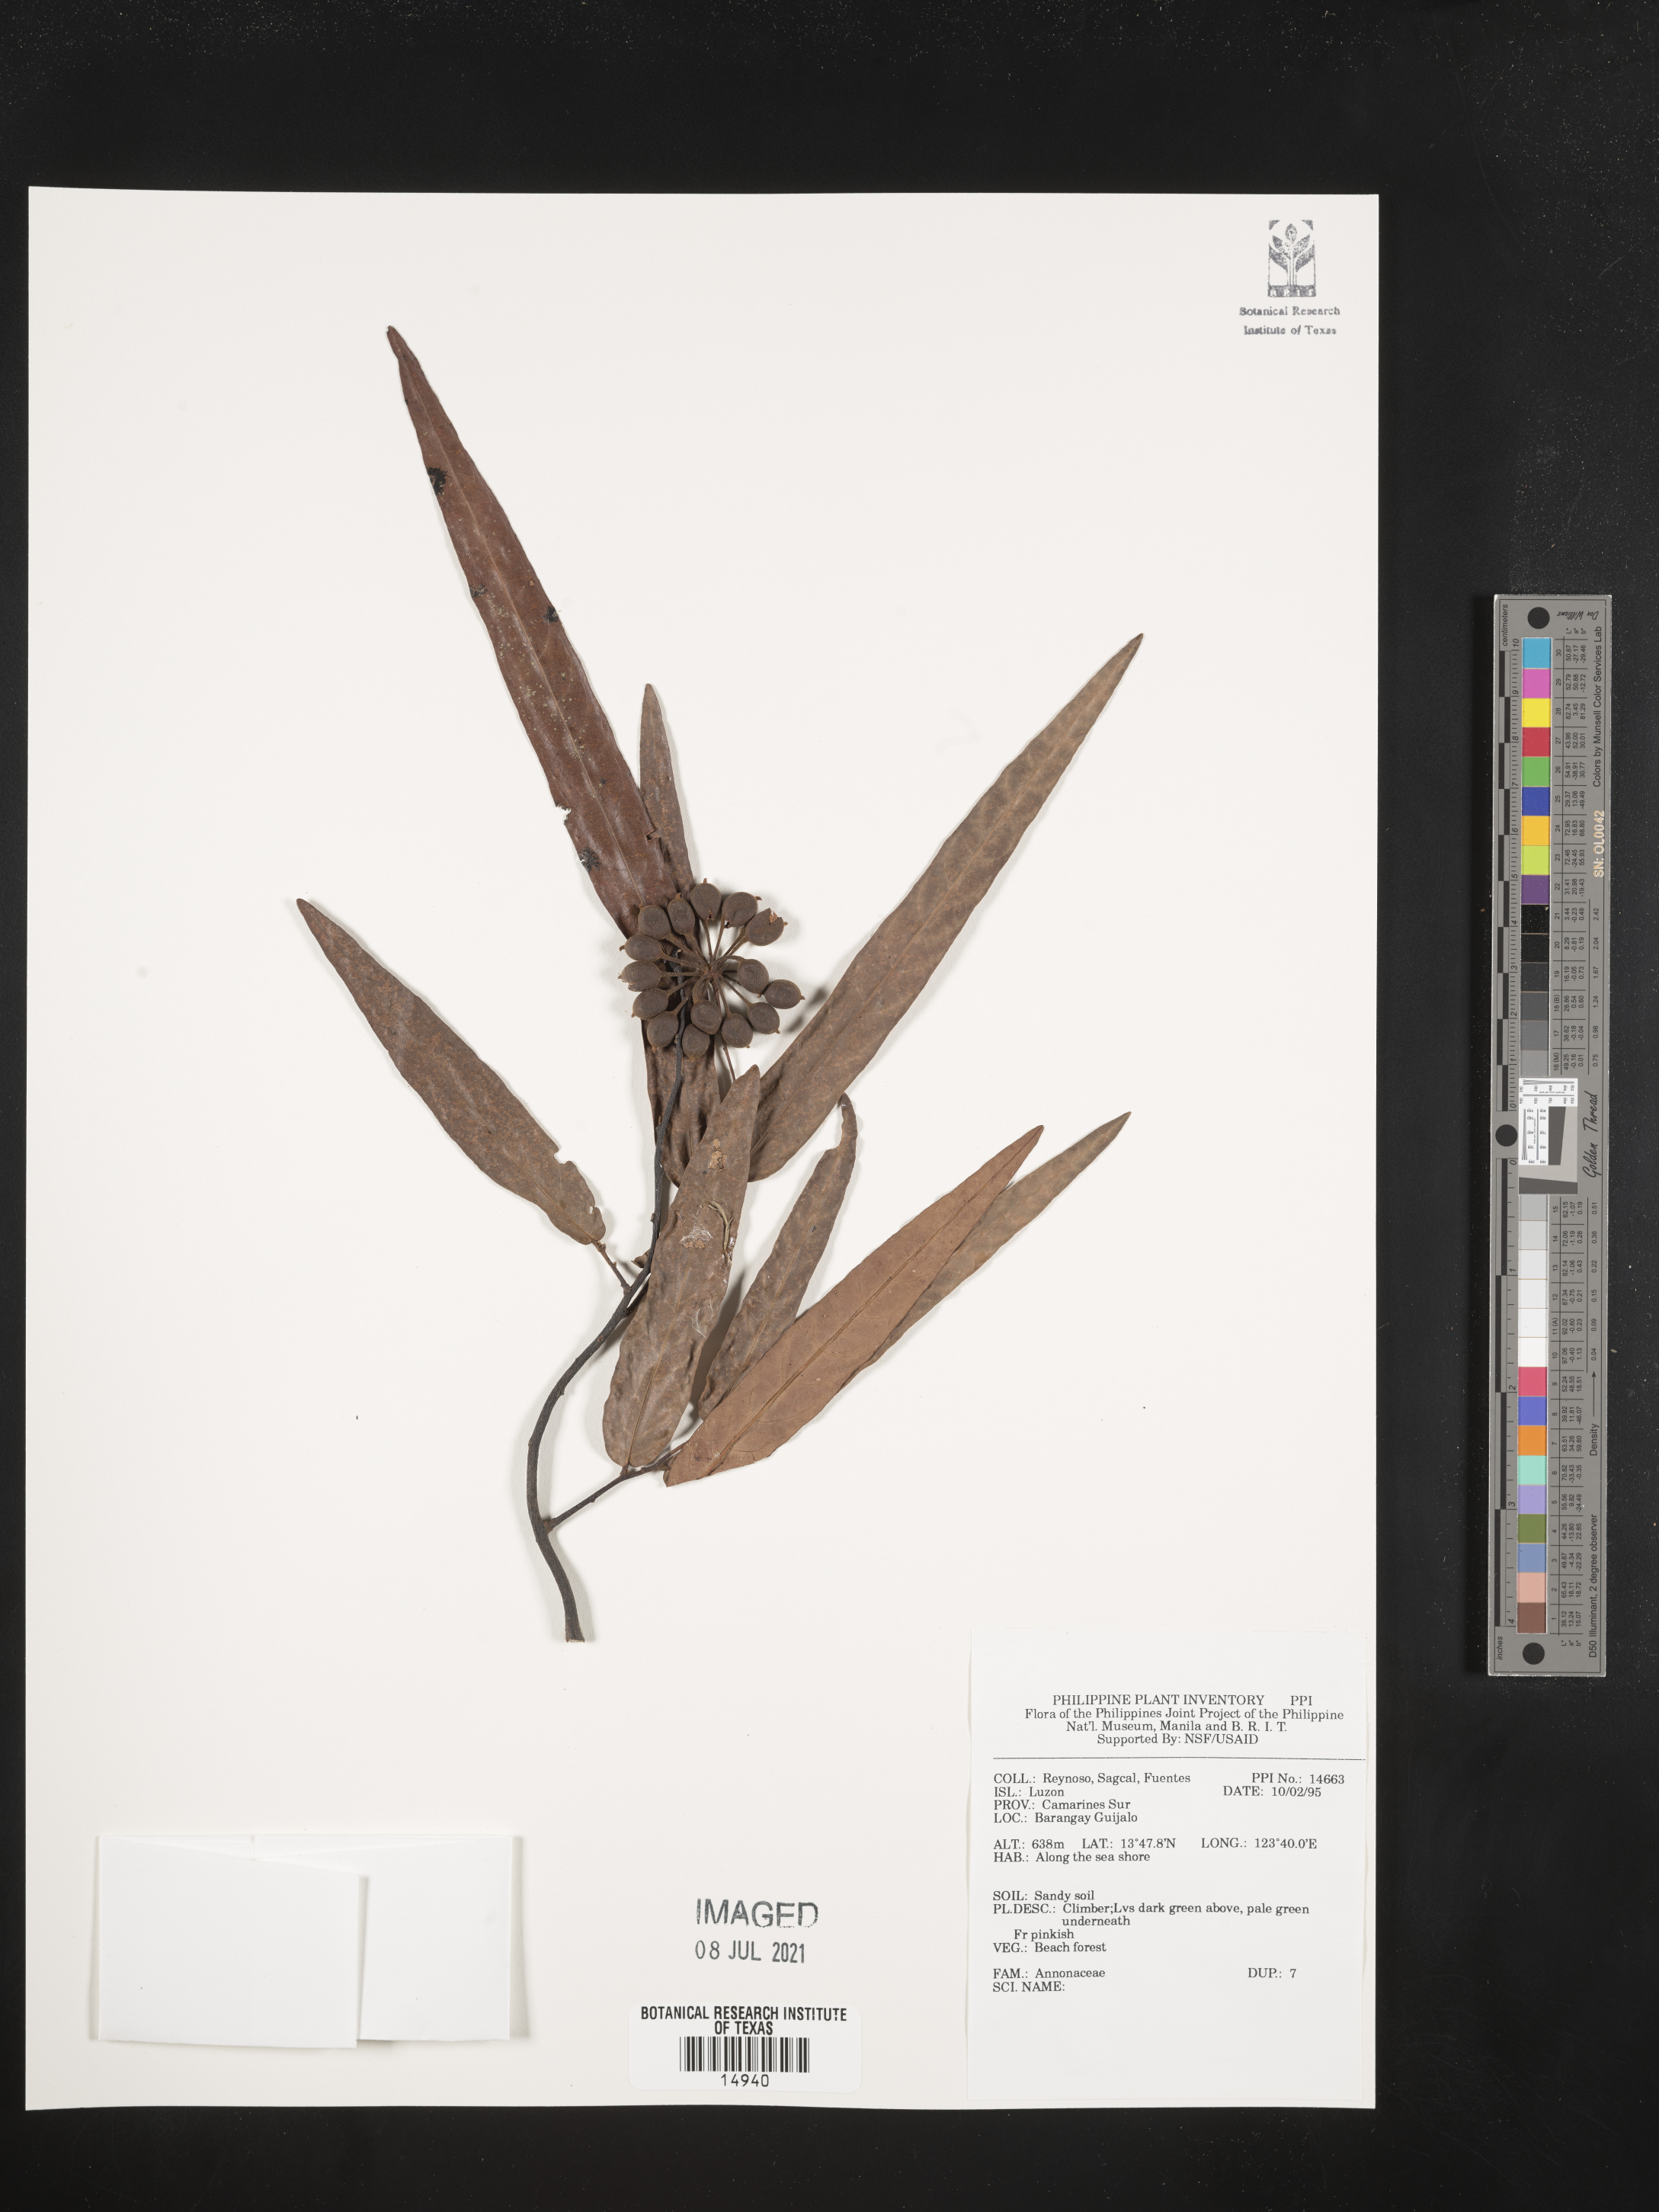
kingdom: Plantae
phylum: Tracheophyta
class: Magnoliopsida
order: Magnoliales
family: Annonaceae
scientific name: Annonaceae
